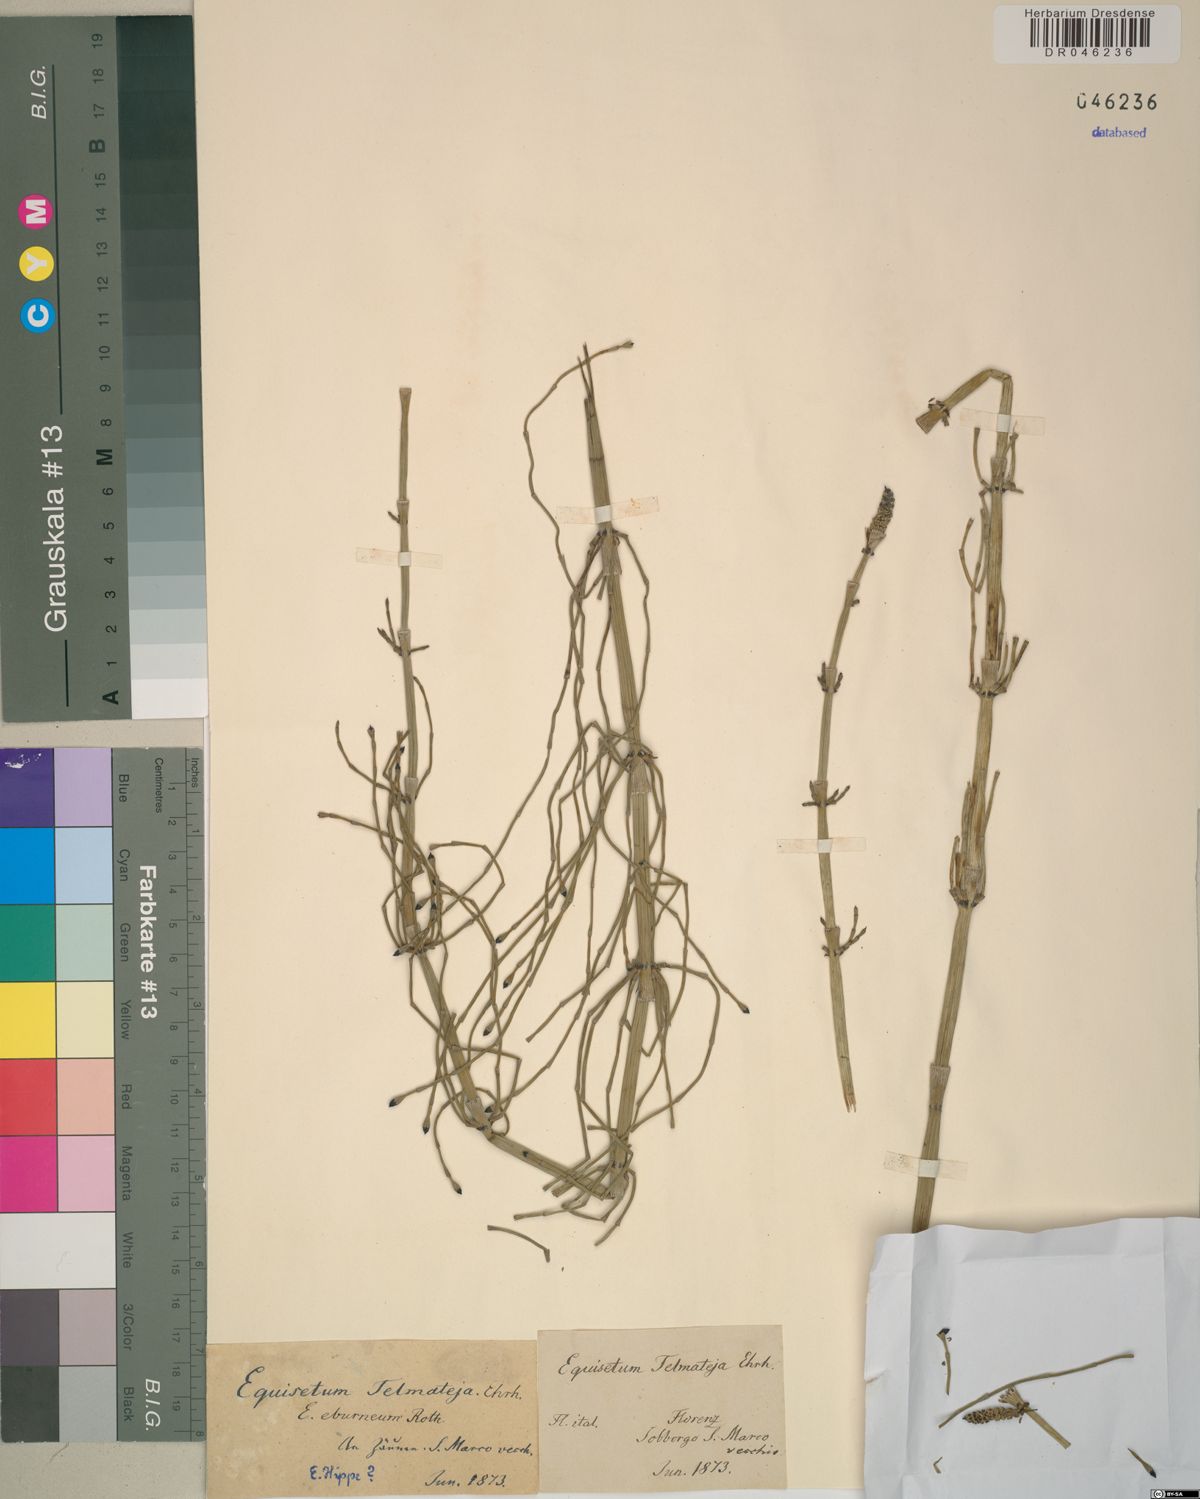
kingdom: Plantae
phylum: Tracheophyta
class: Polypodiopsida
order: Equisetales
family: Equisetaceae
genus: Equisetum
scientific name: Equisetum telmateia
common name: Great horsetail
